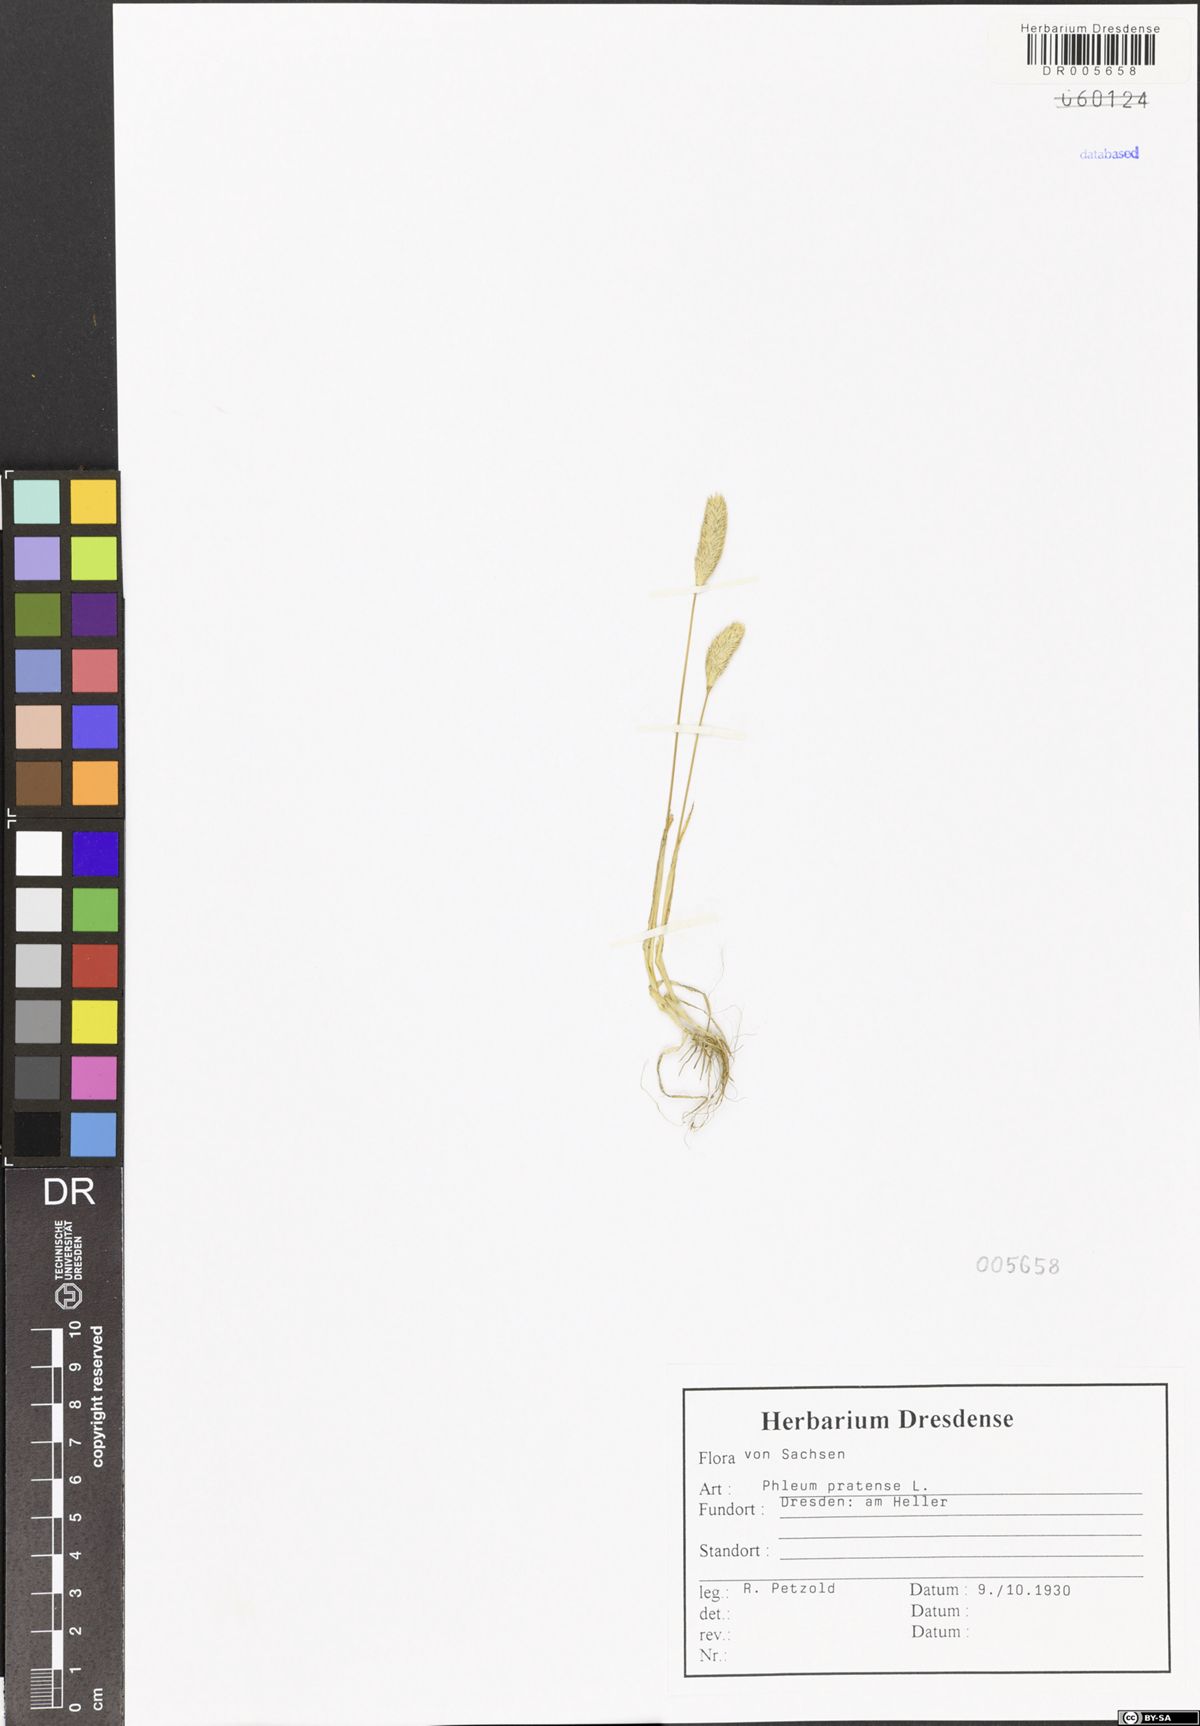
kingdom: Plantae
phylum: Tracheophyta
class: Liliopsida
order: Poales
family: Poaceae
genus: Phleum
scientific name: Phleum pratense
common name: Timothy grass
